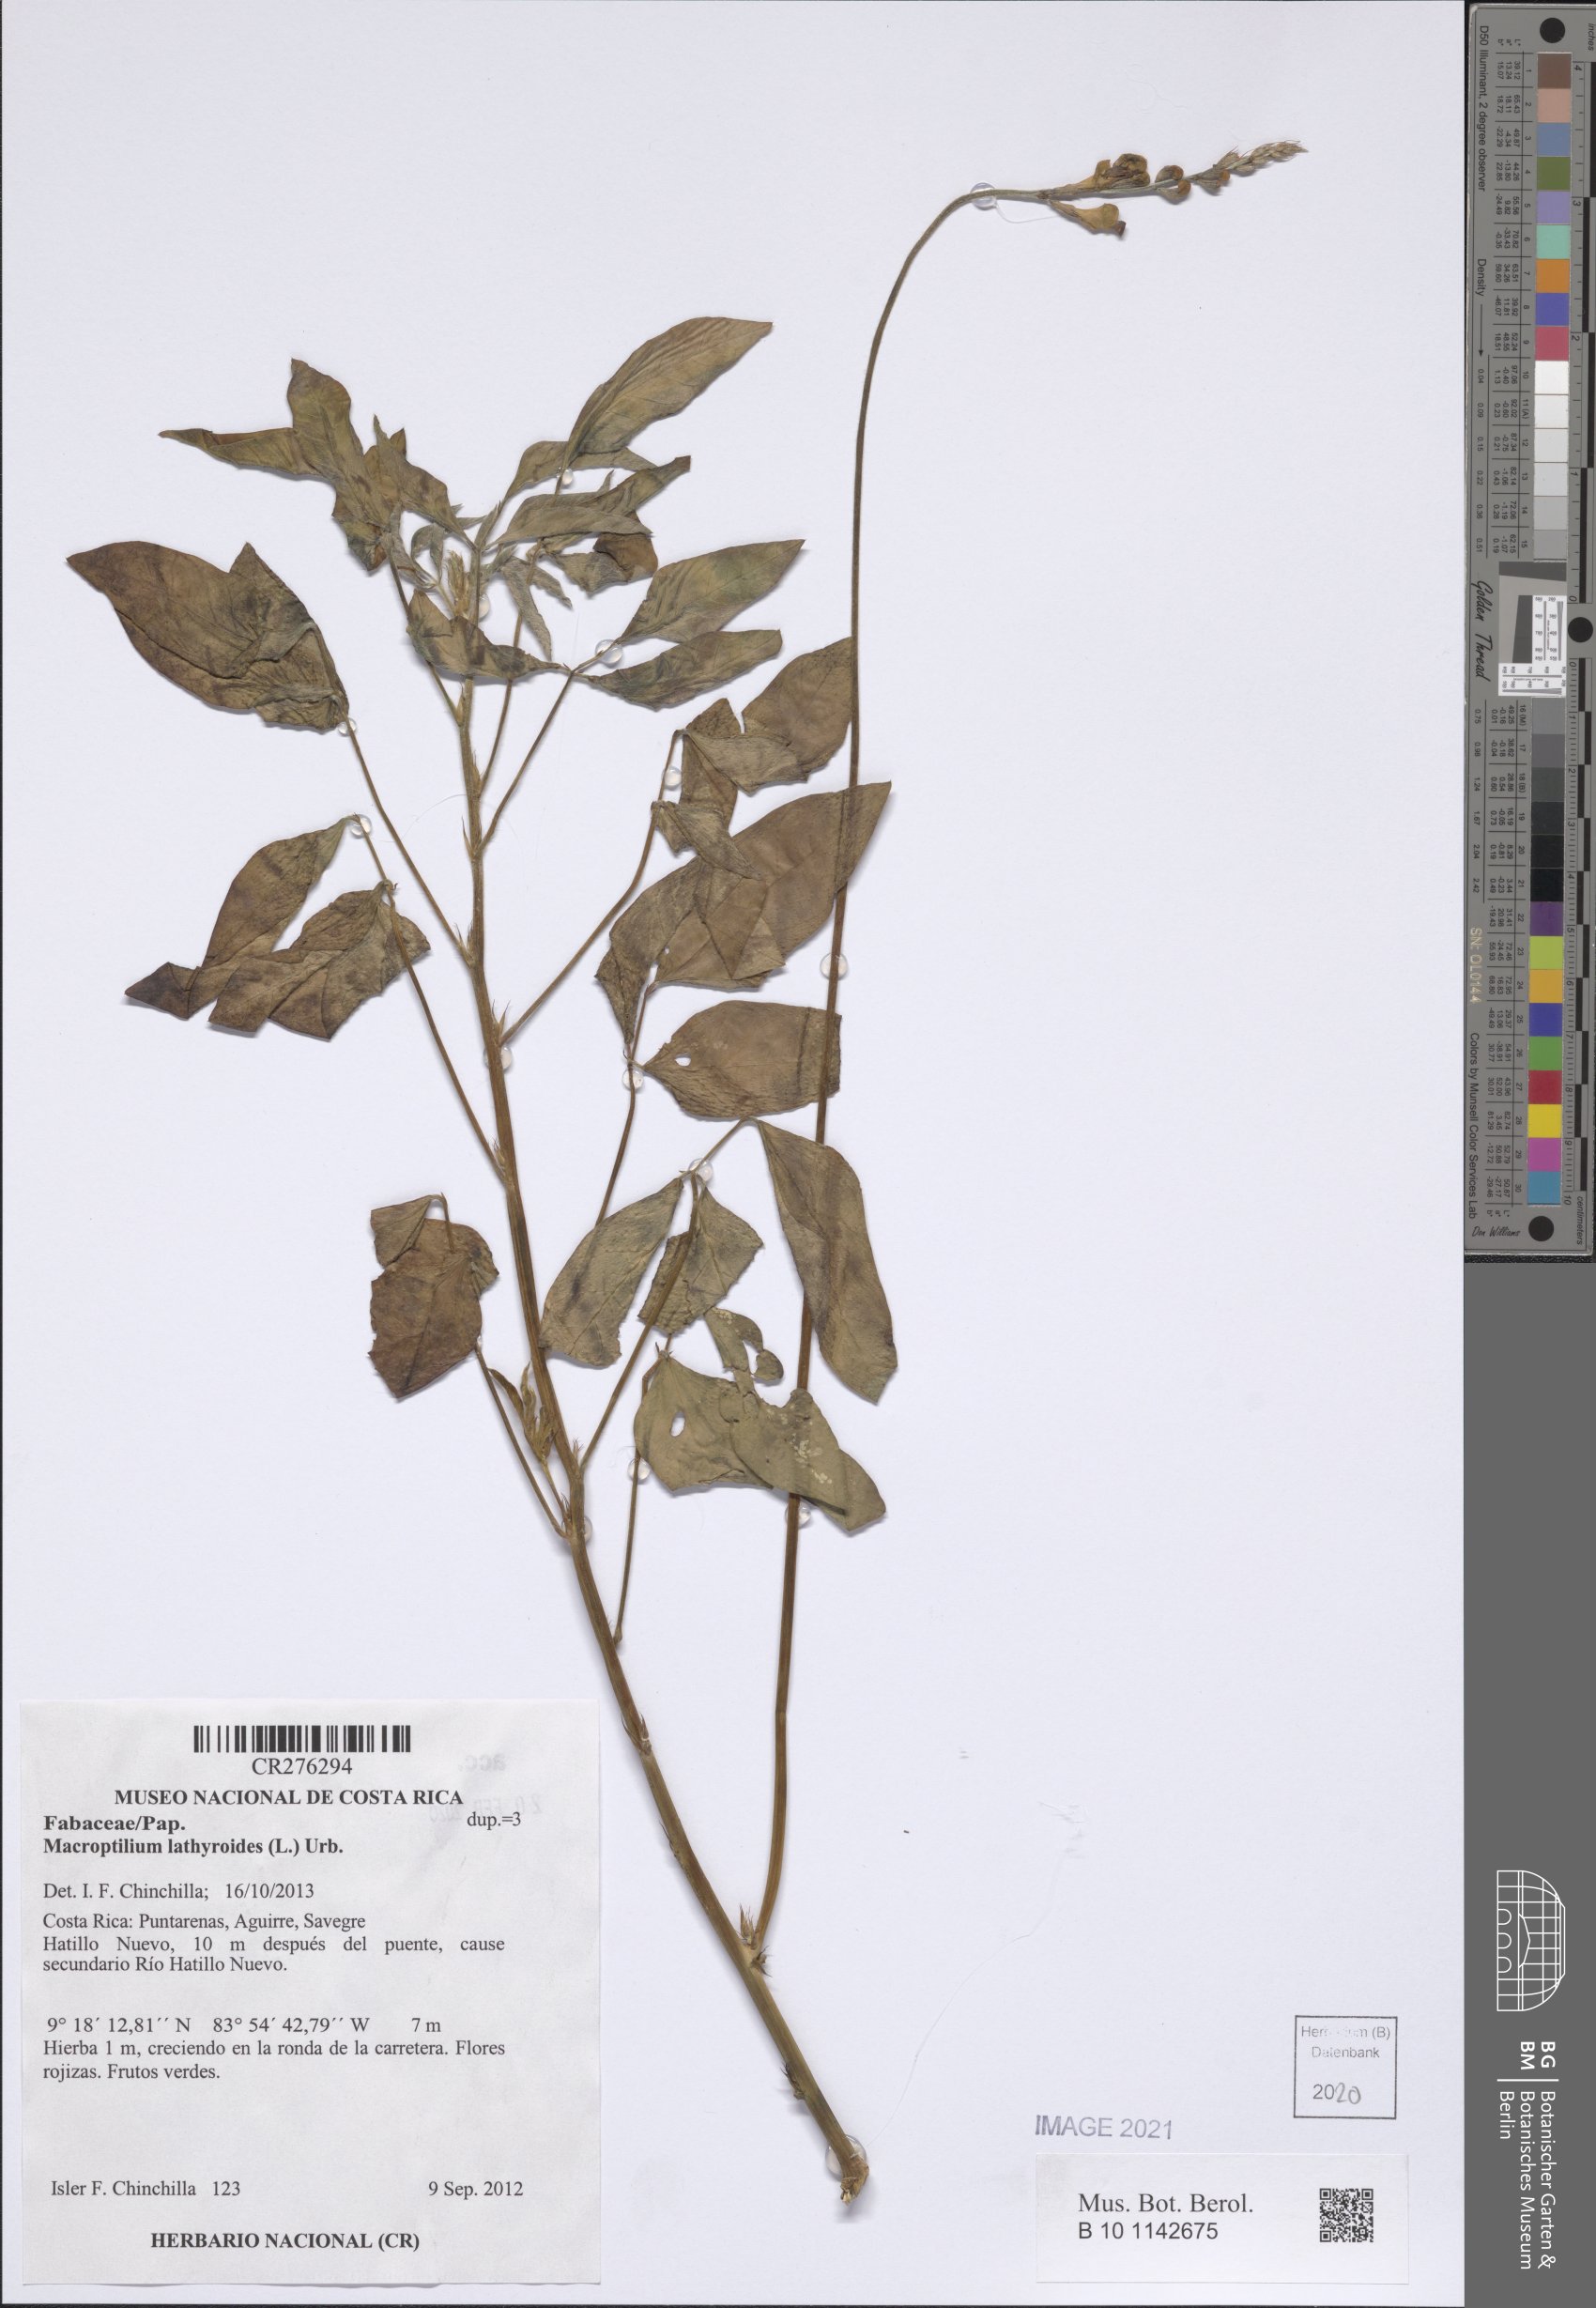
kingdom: Plantae
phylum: Tracheophyta
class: Magnoliopsida
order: Fabales
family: Fabaceae
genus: Macroptilium
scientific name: Macroptilium lathyroides
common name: Wild bushbean
